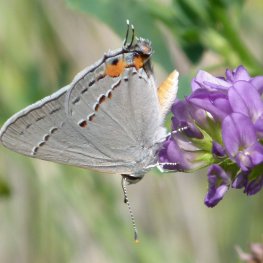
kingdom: Animalia
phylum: Arthropoda
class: Insecta
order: Lepidoptera
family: Lycaenidae
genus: Strymon
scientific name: Strymon melinus
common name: Gray Hairstreak
